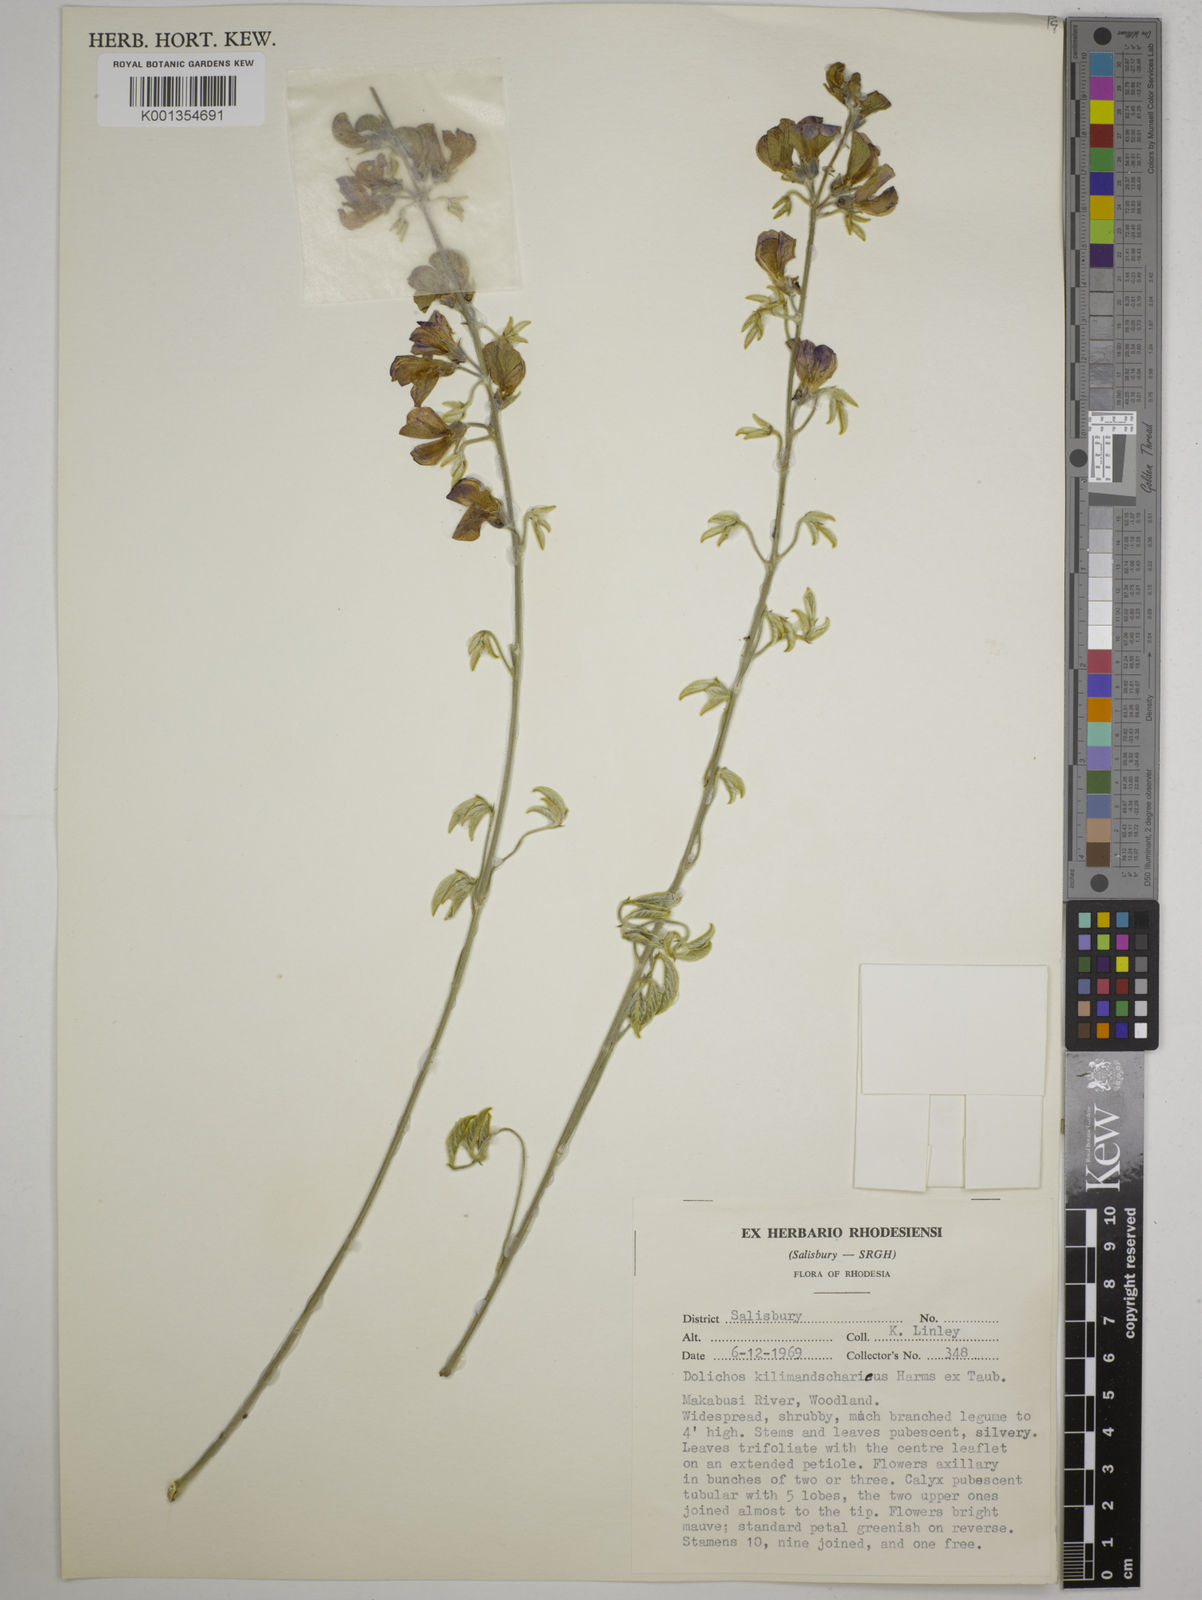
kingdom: Plantae
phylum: Tracheophyta
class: Magnoliopsida
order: Fabales
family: Fabaceae
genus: Dolichos
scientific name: Dolichos kilimandscharicus
